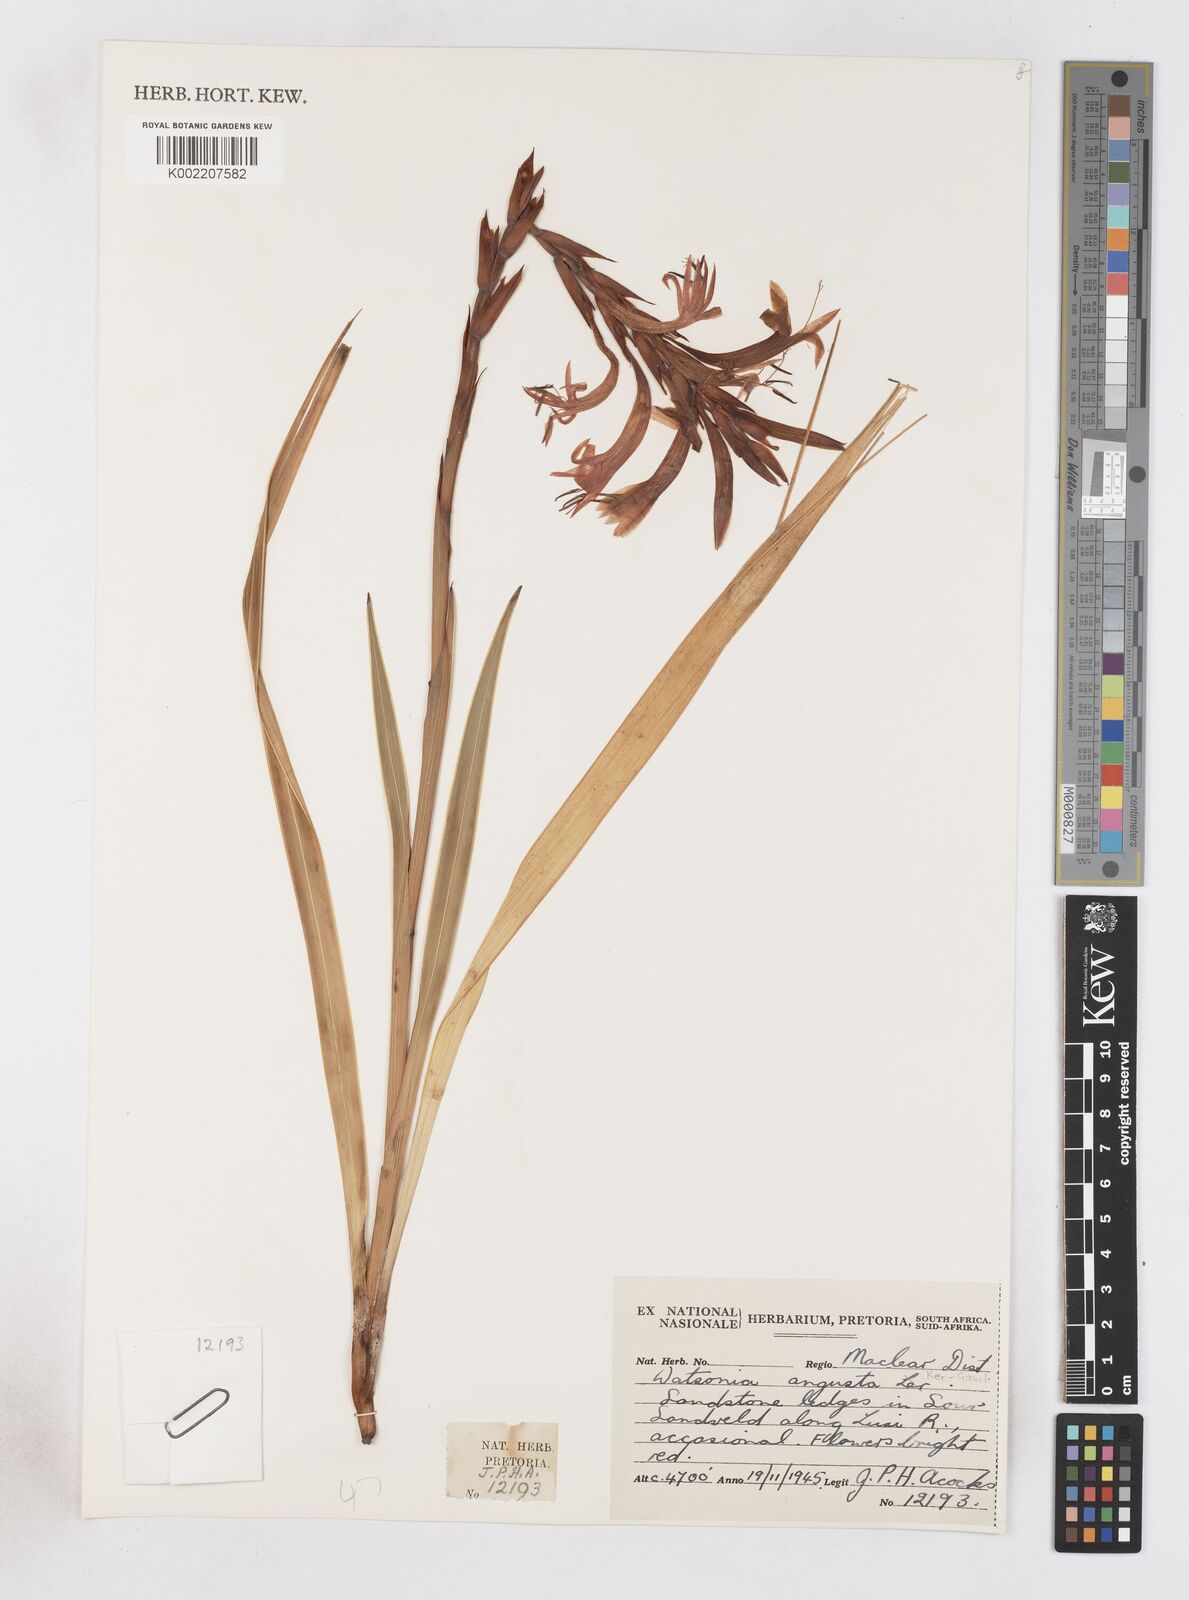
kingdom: Plantae
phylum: Tracheophyta
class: Liliopsida
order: Asparagales
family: Iridaceae
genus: Watsonia
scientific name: Watsonia angusta
